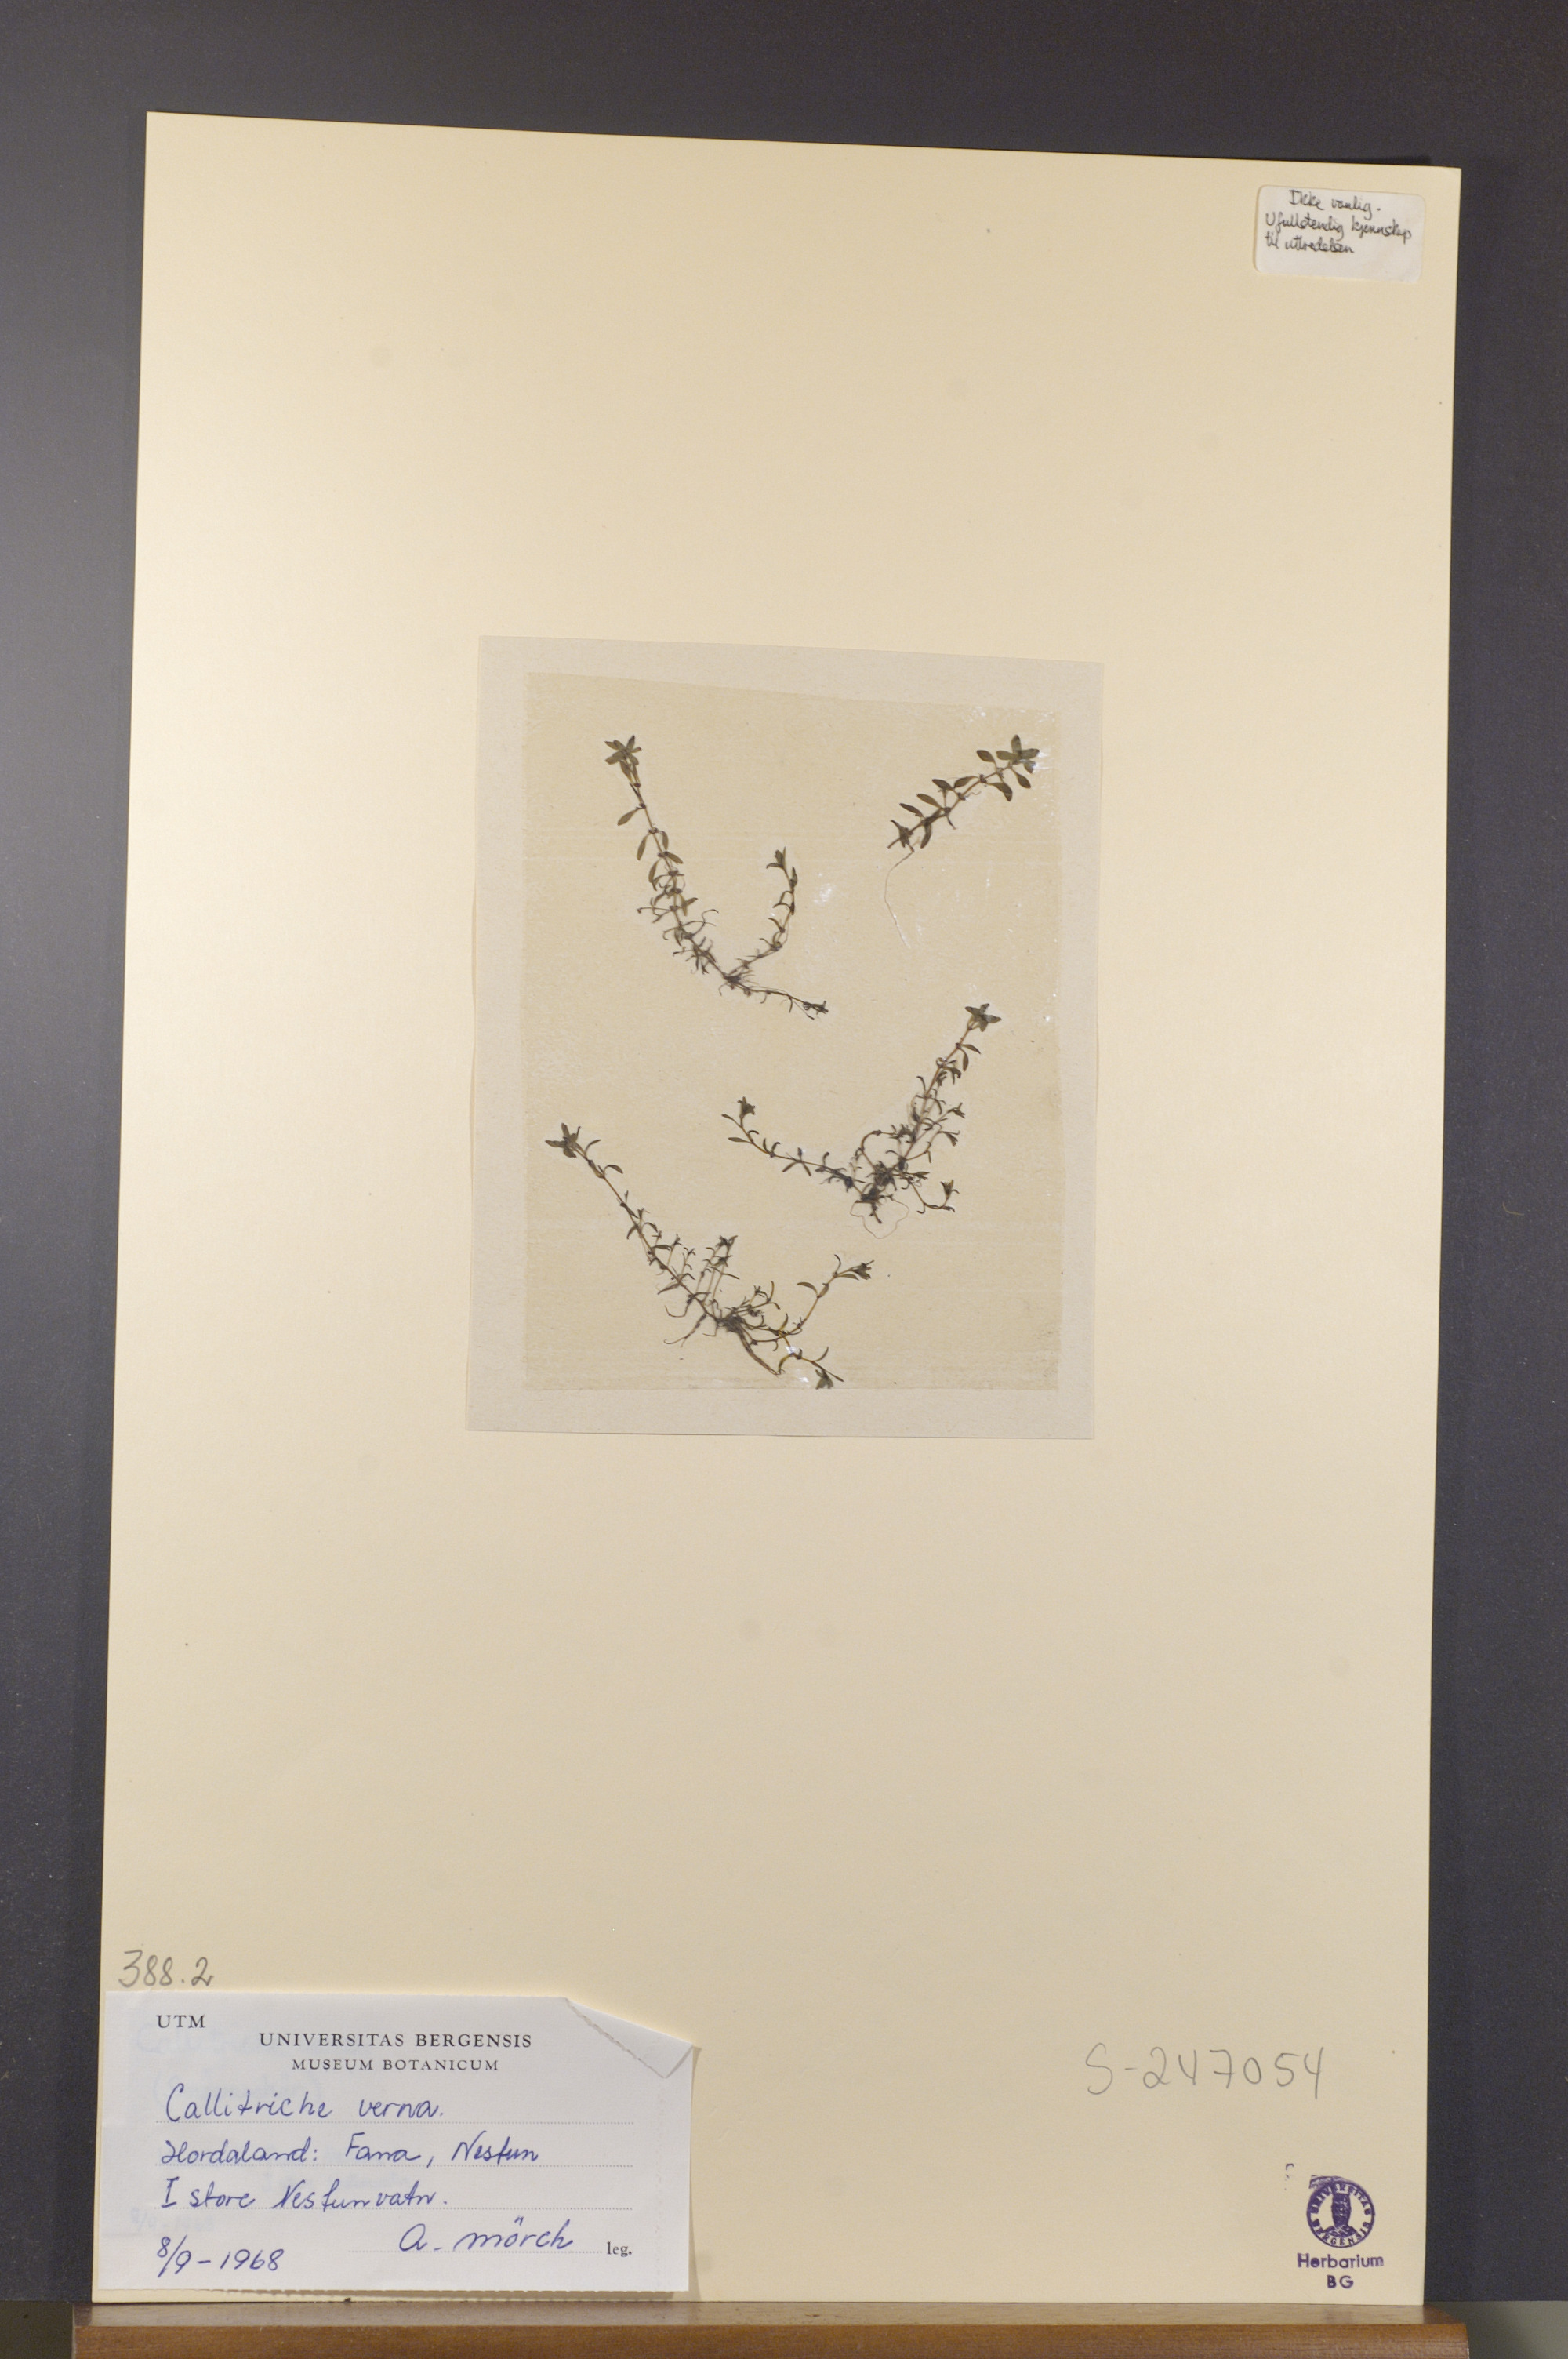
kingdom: Plantae
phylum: Tracheophyta
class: Magnoliopsida
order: Lamiales
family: Plantaginaceae
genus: Callitriche
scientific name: Callitriche palustris
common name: Spring water-starwort
